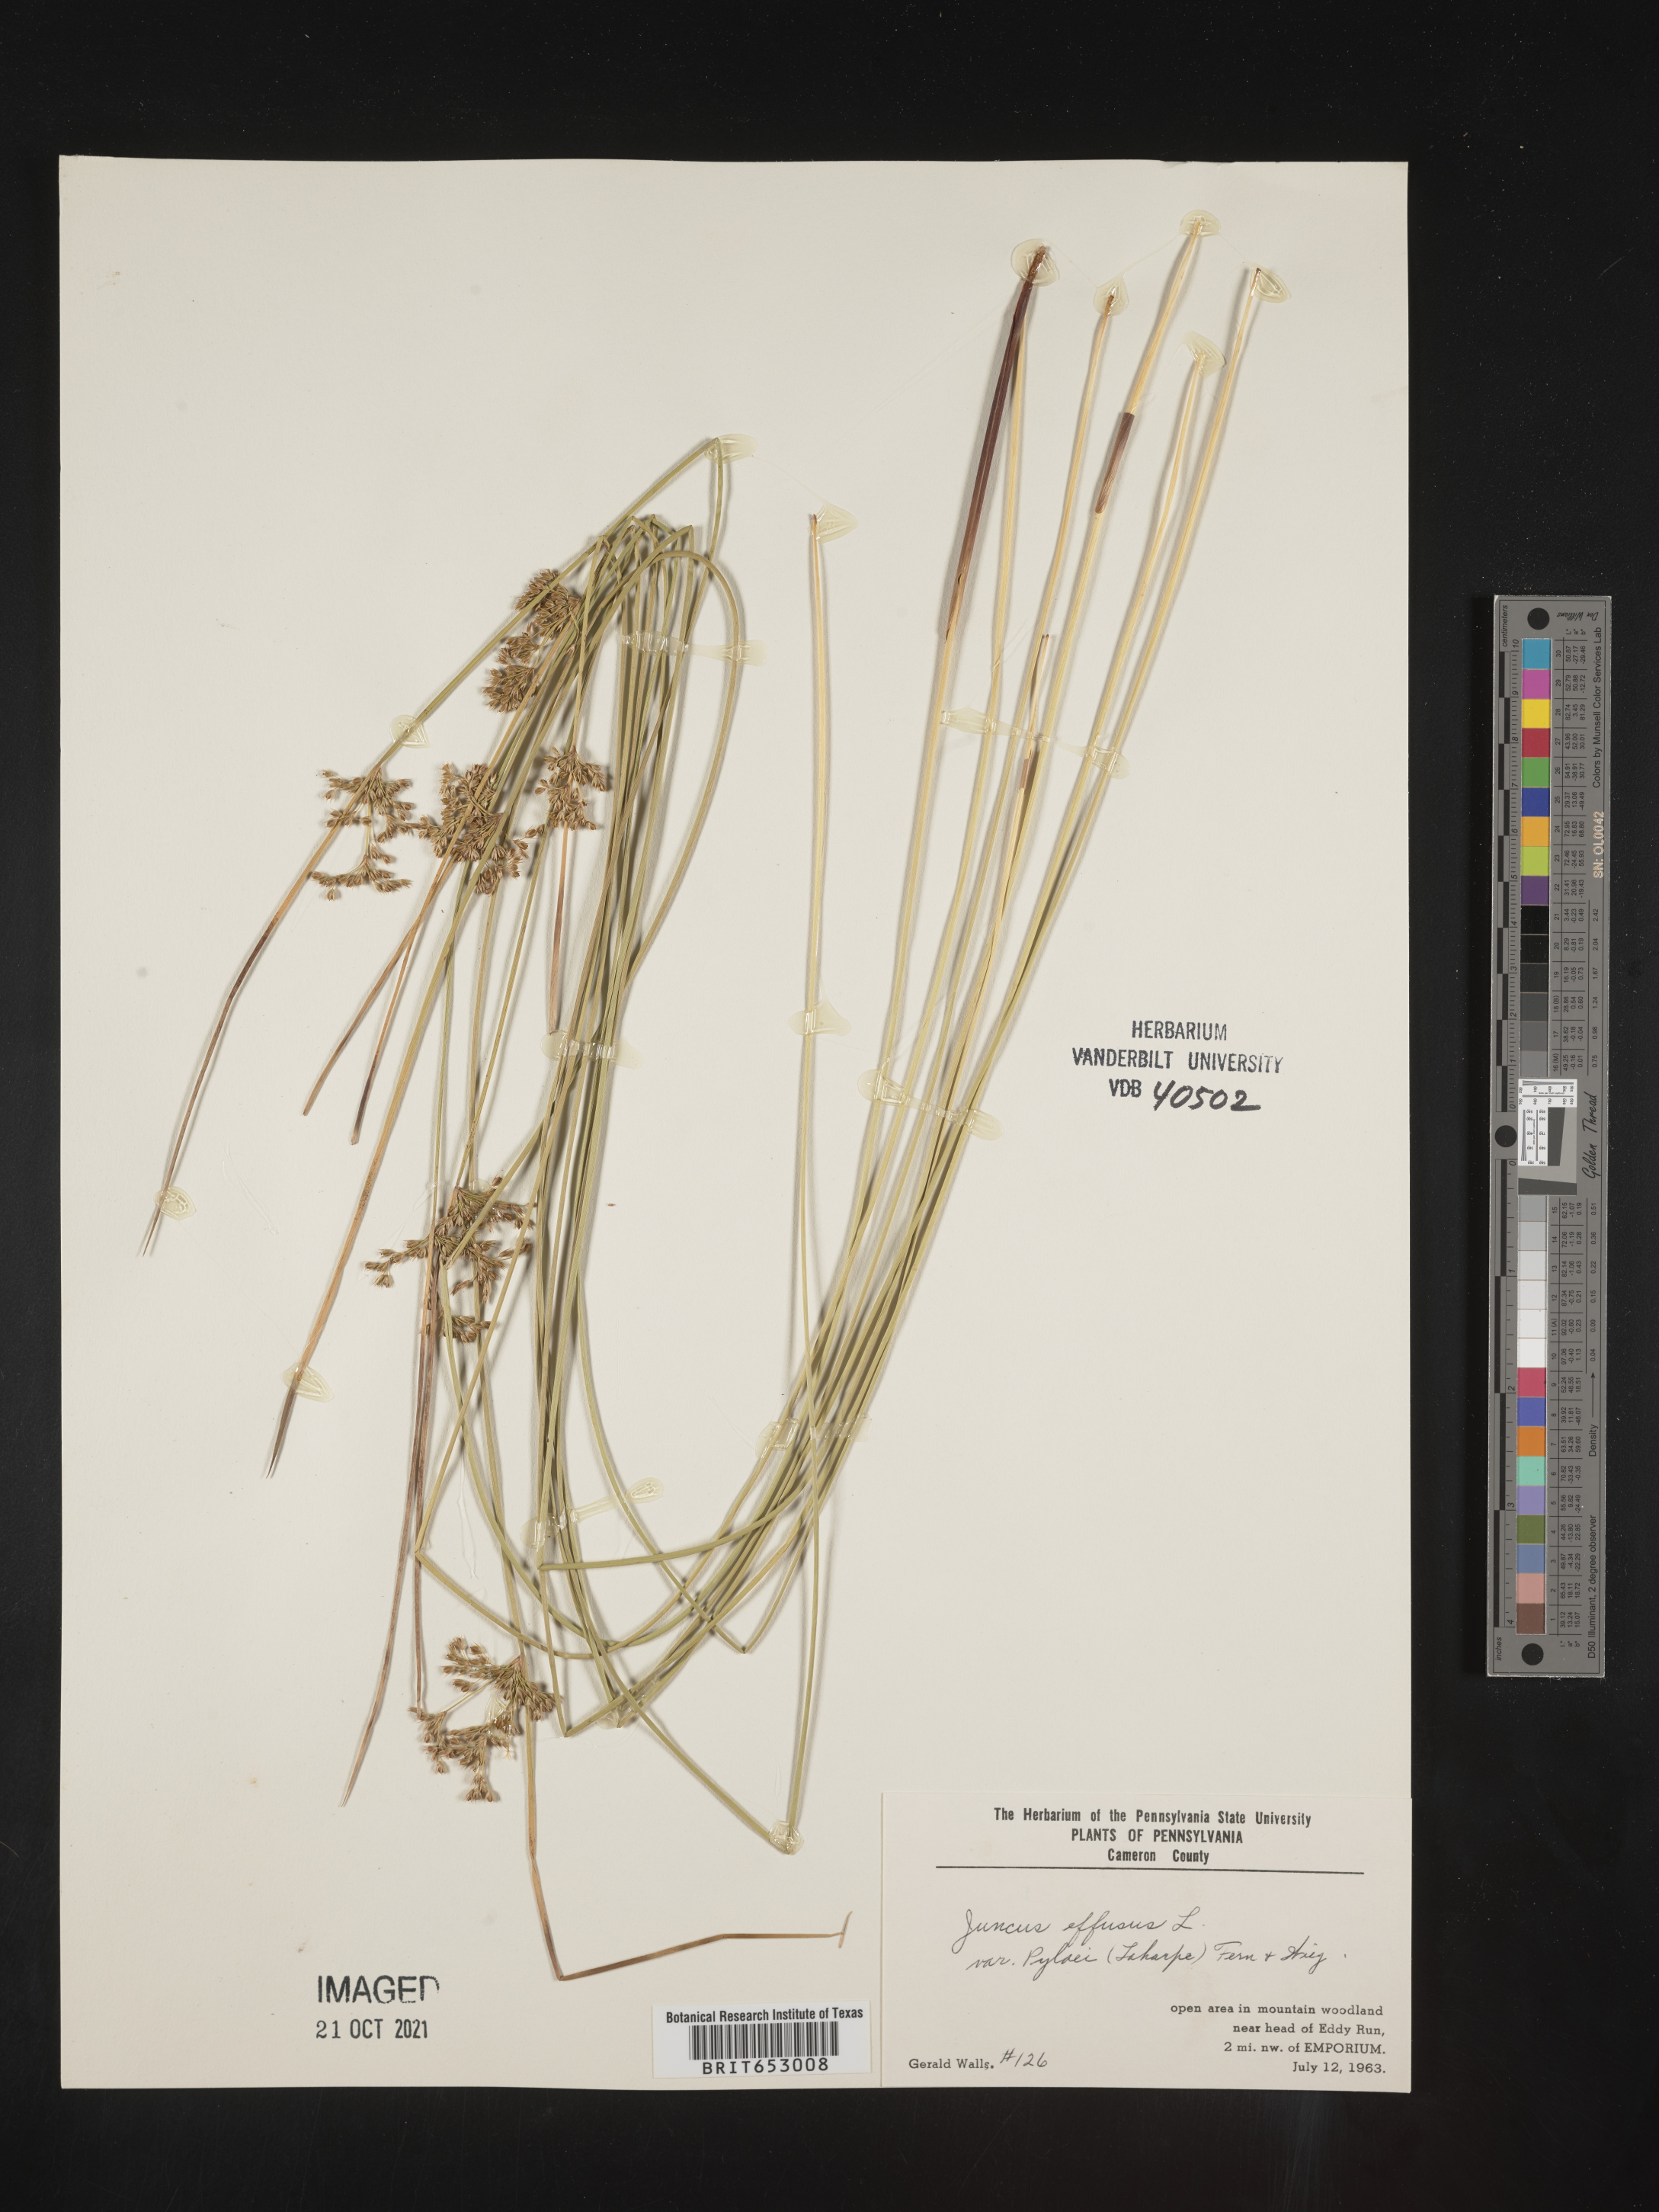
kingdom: Plantae
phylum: Tracheophyta
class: Liliopsida
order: Poales
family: Juncaceae
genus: Juncus
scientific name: Juncus effusus
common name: Soft rush
